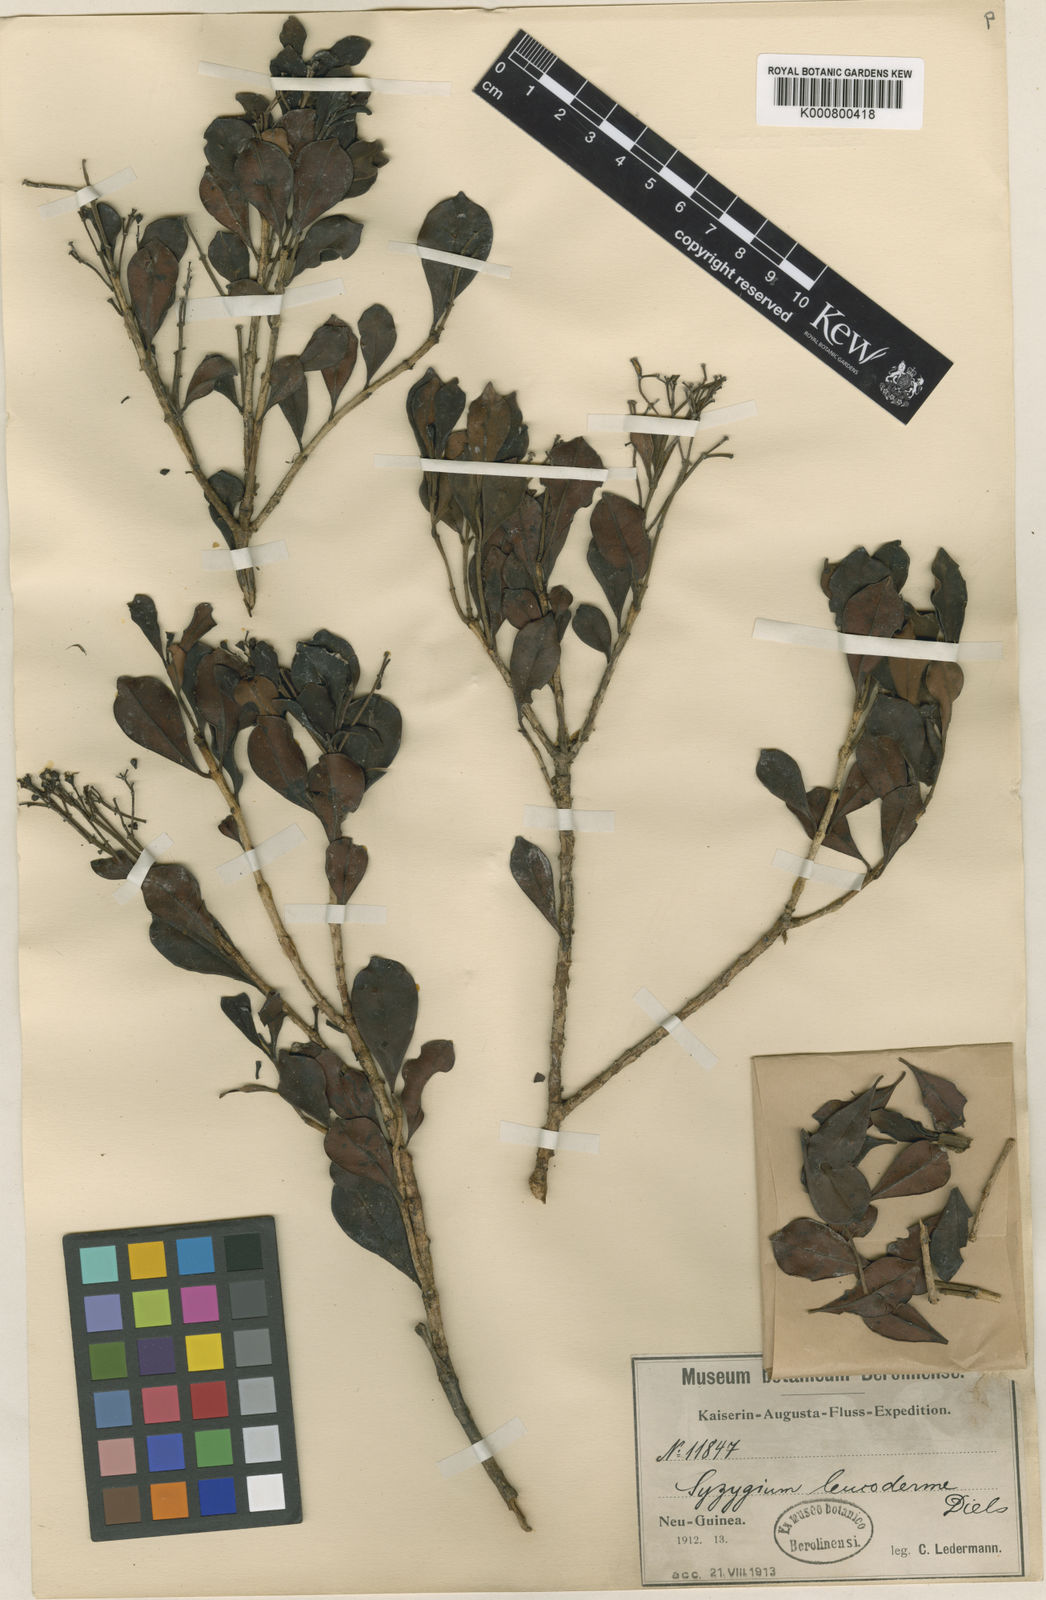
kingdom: Plantae
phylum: Tracheophyta
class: Magnoliopsida
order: Myrtales
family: Myrtaceae
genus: Syzygium
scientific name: Syzygium effusum
